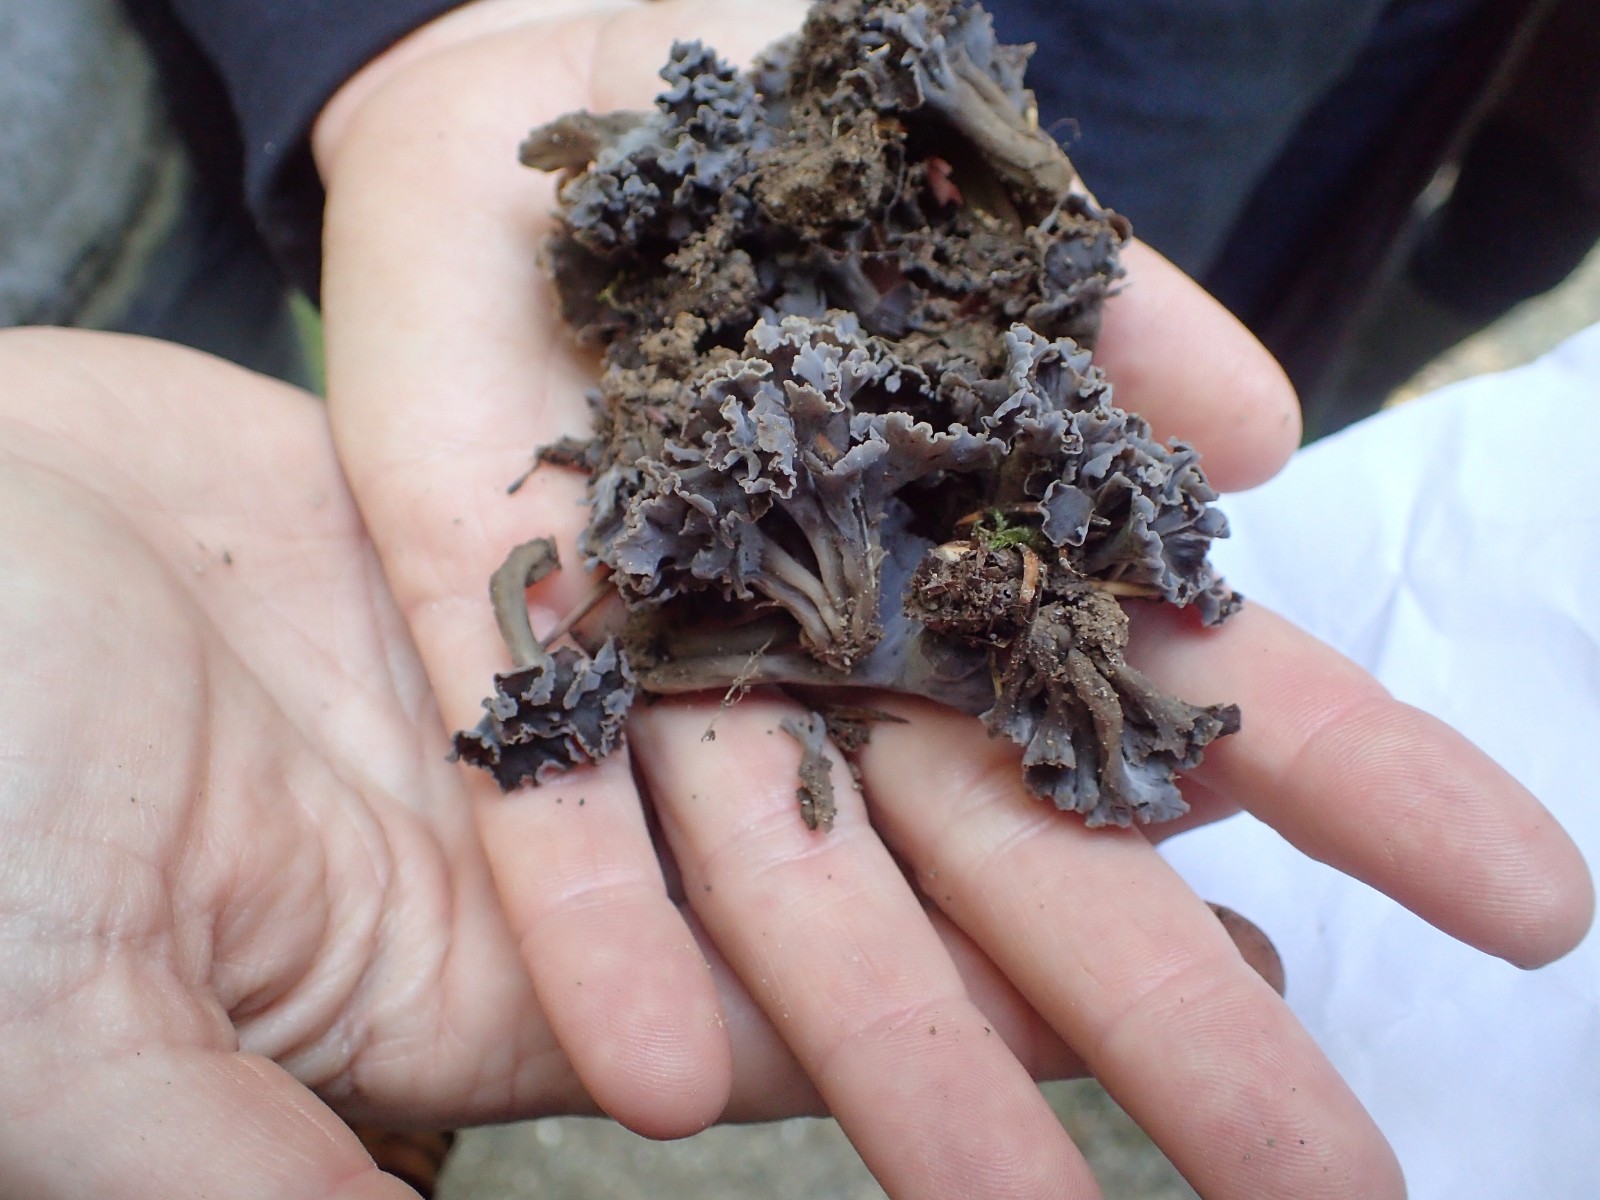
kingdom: Fungi
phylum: Basidiomycota
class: Agaricomycetes
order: Cantharellales
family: Hydnaceae
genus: Craterellus
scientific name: Craterellus undulatus
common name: liden kantarel
